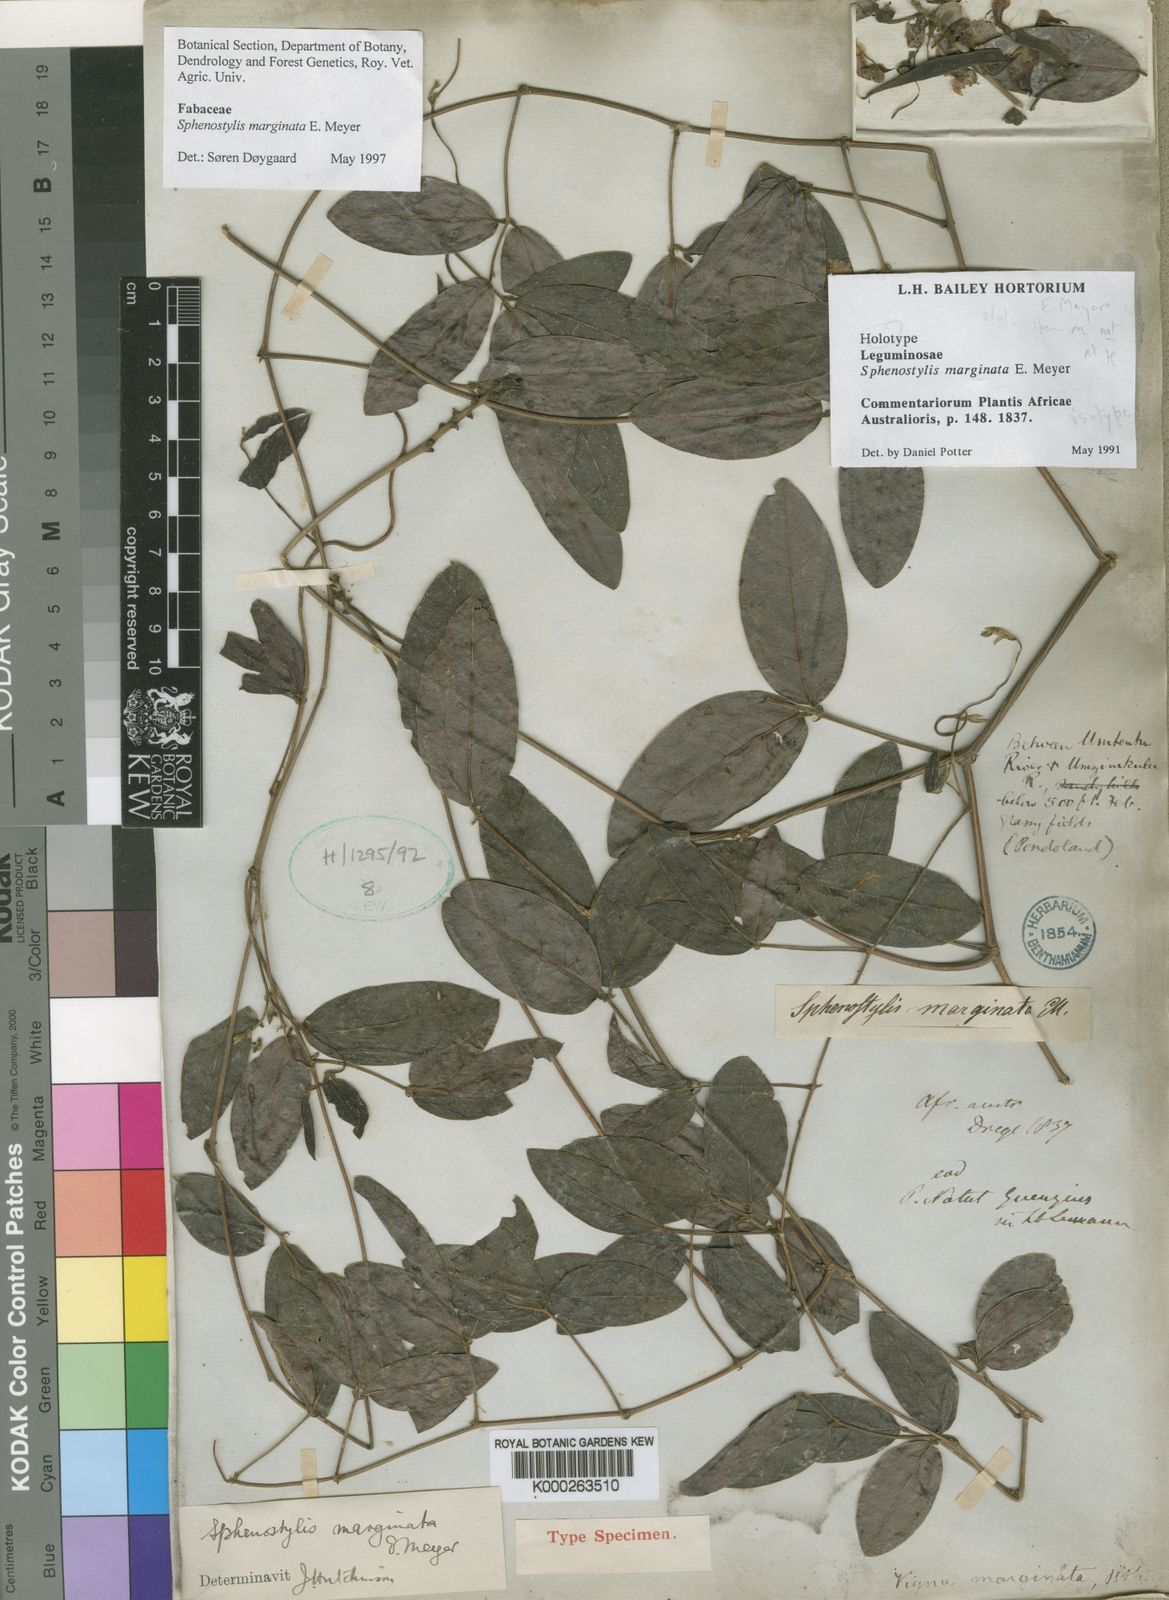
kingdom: Plantae
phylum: Tracheophyta
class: Magnoliopsida
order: Fabales
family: Fabaceae
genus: Sphenostylis
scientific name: Sphenostylis marginata
